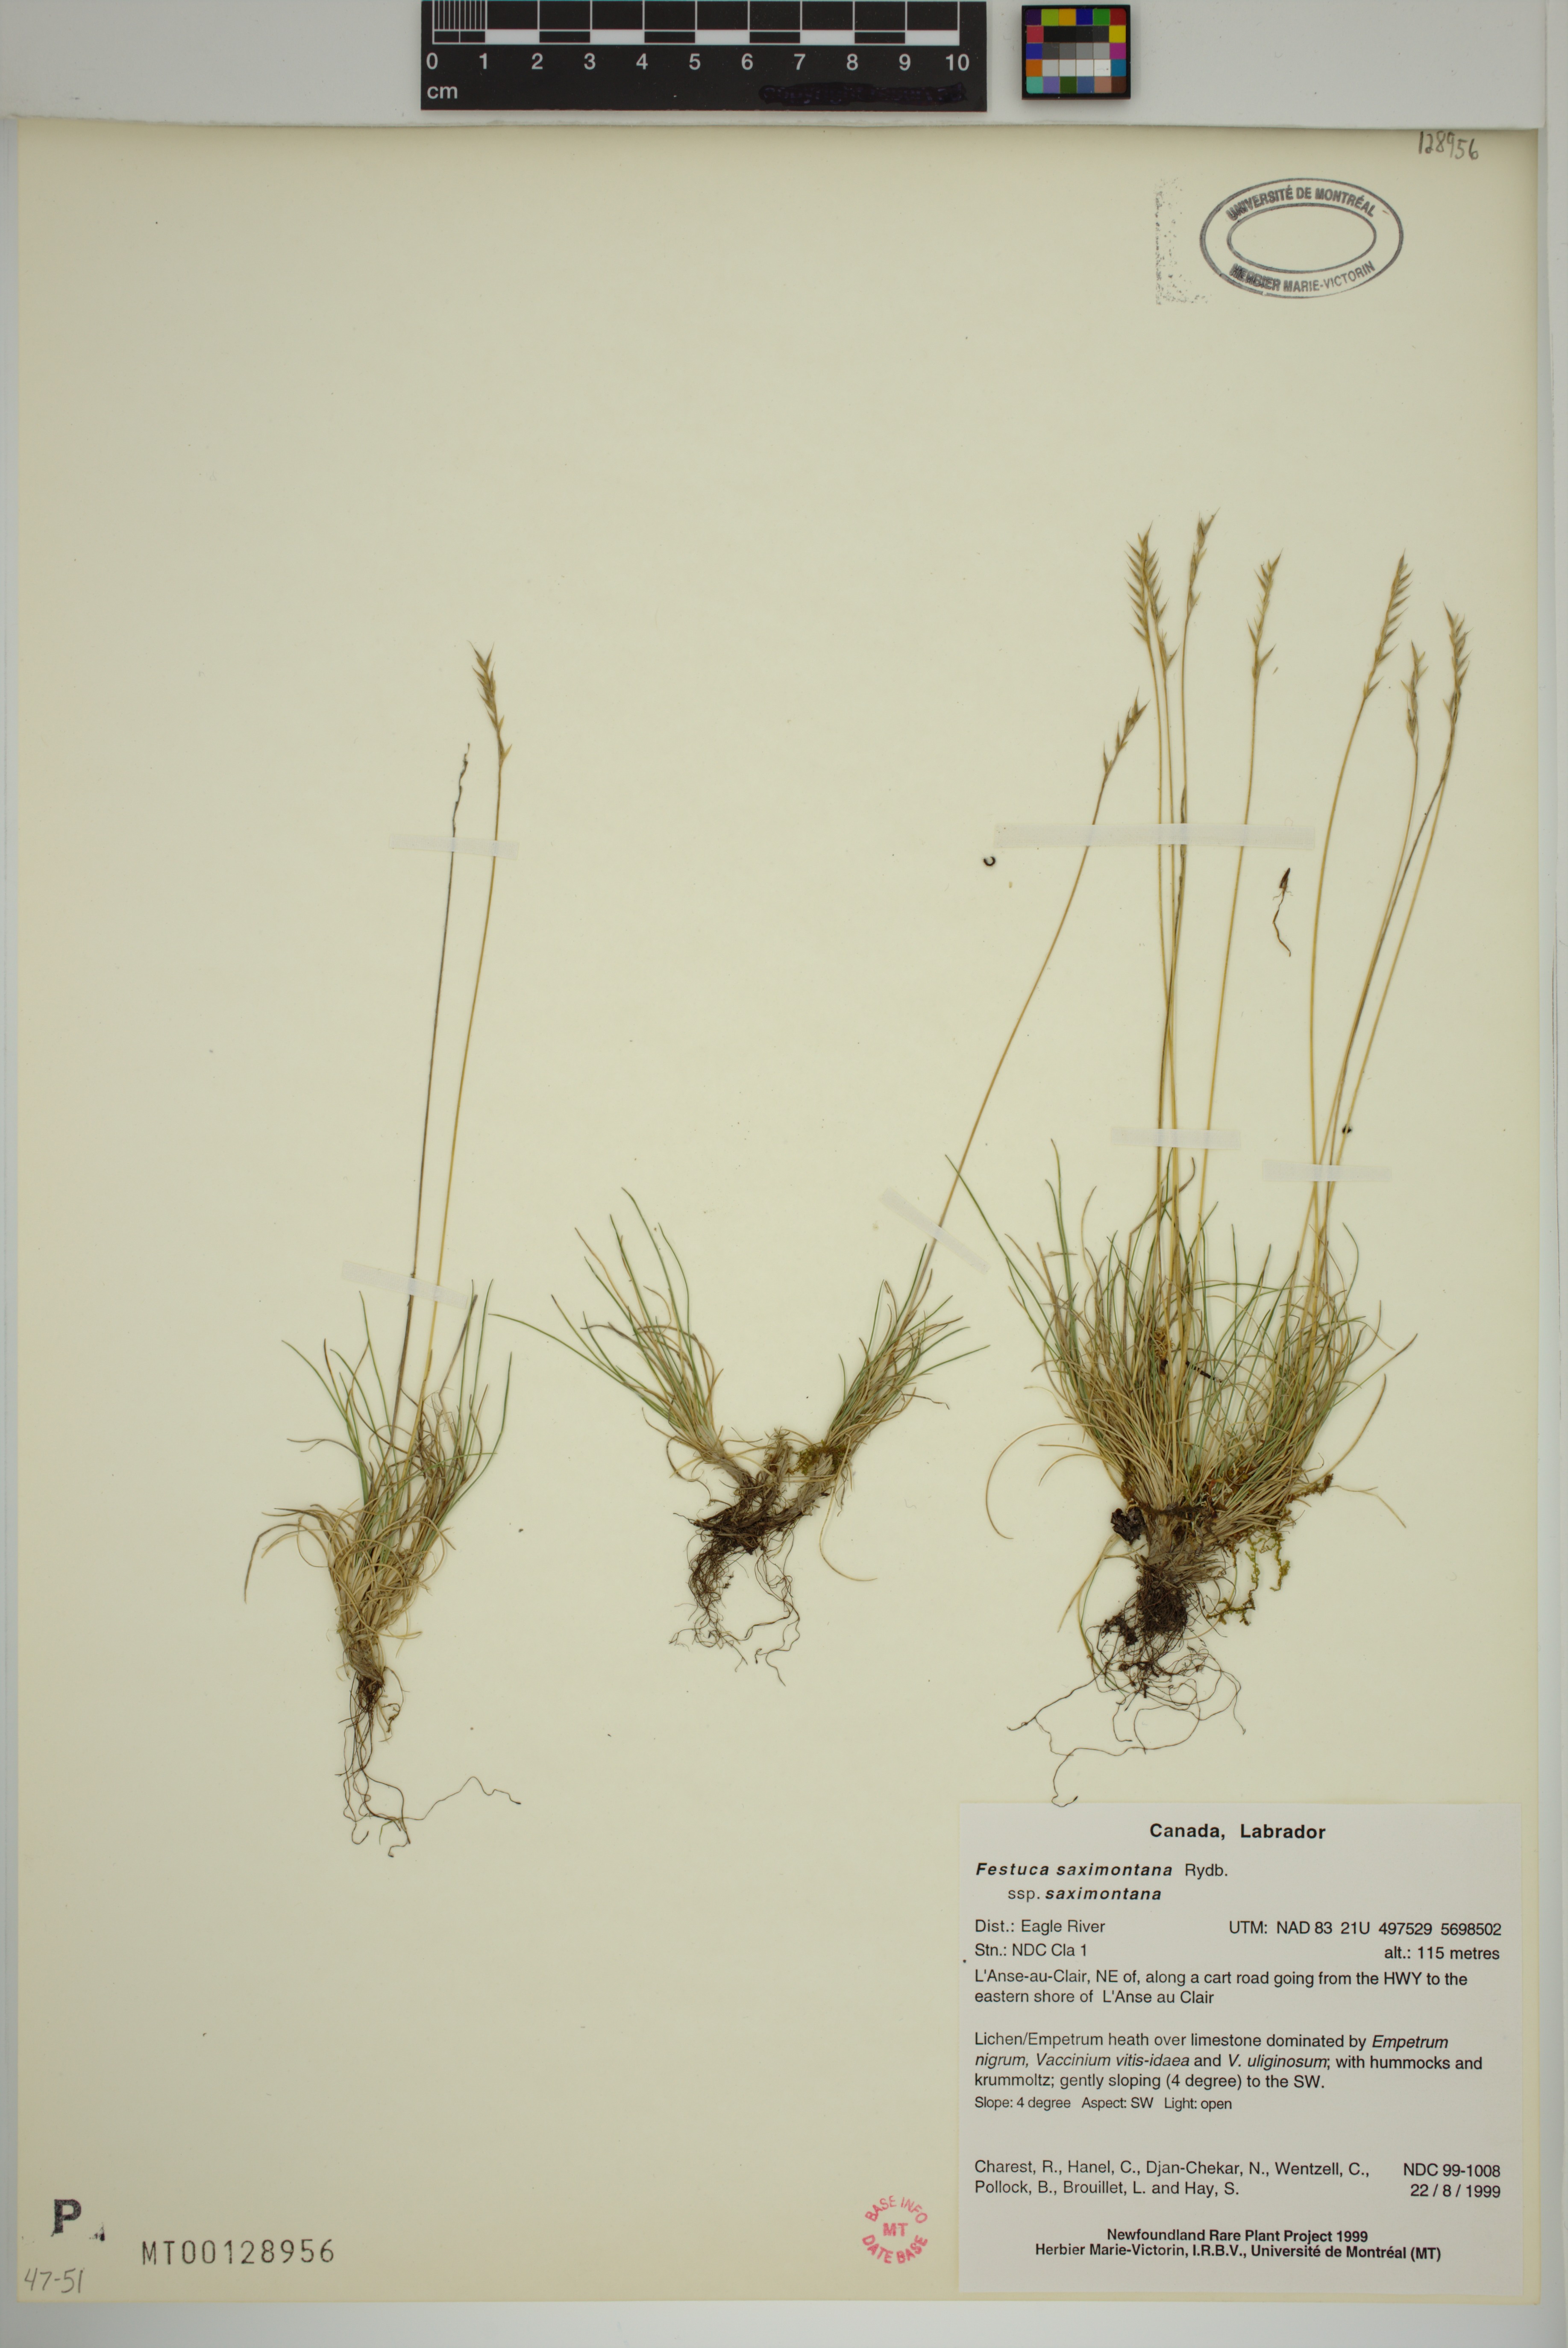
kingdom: Plantae
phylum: Tracheophyta
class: Liliopsida
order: Poales
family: Poaceae
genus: Festuca
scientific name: Festuca brachyphylla
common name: Alpine fescue
